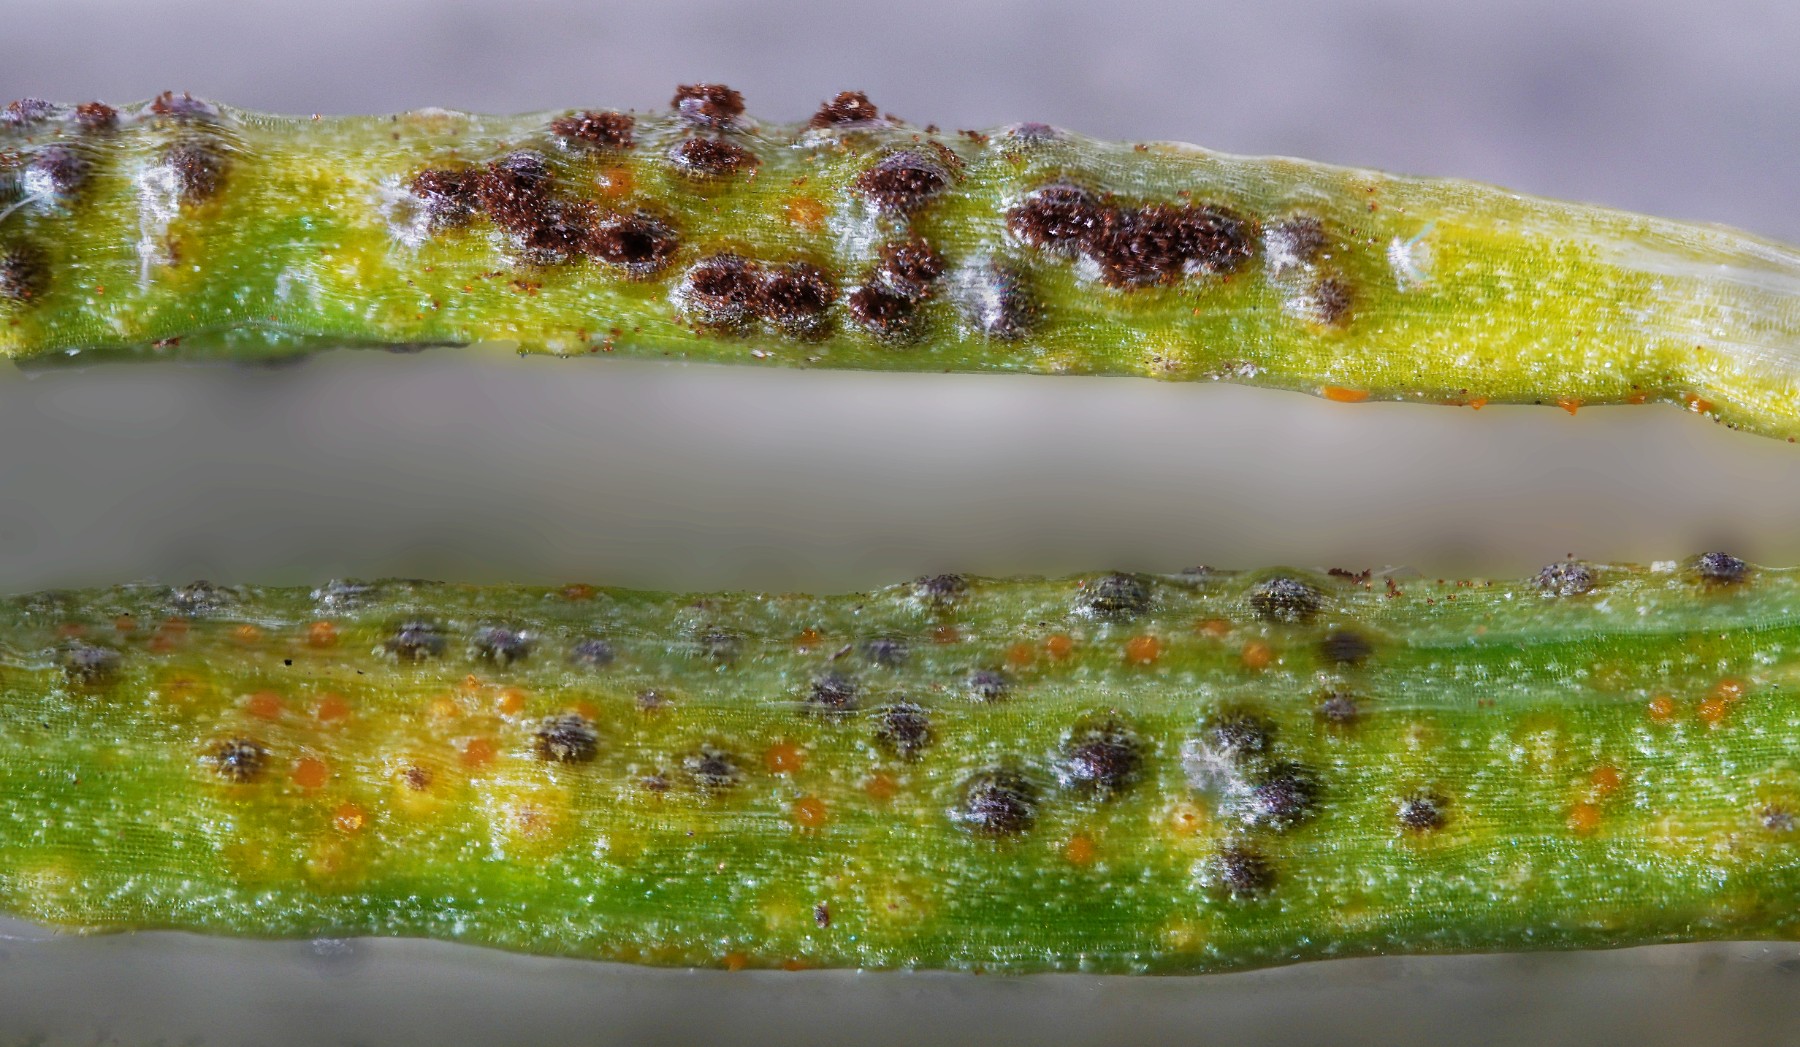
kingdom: Fungi
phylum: Basidiomycota
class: Pucciniomycetes
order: Pucciniales
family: Pucciniaceae
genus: Puccinia
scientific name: Puccinia liliacearum
